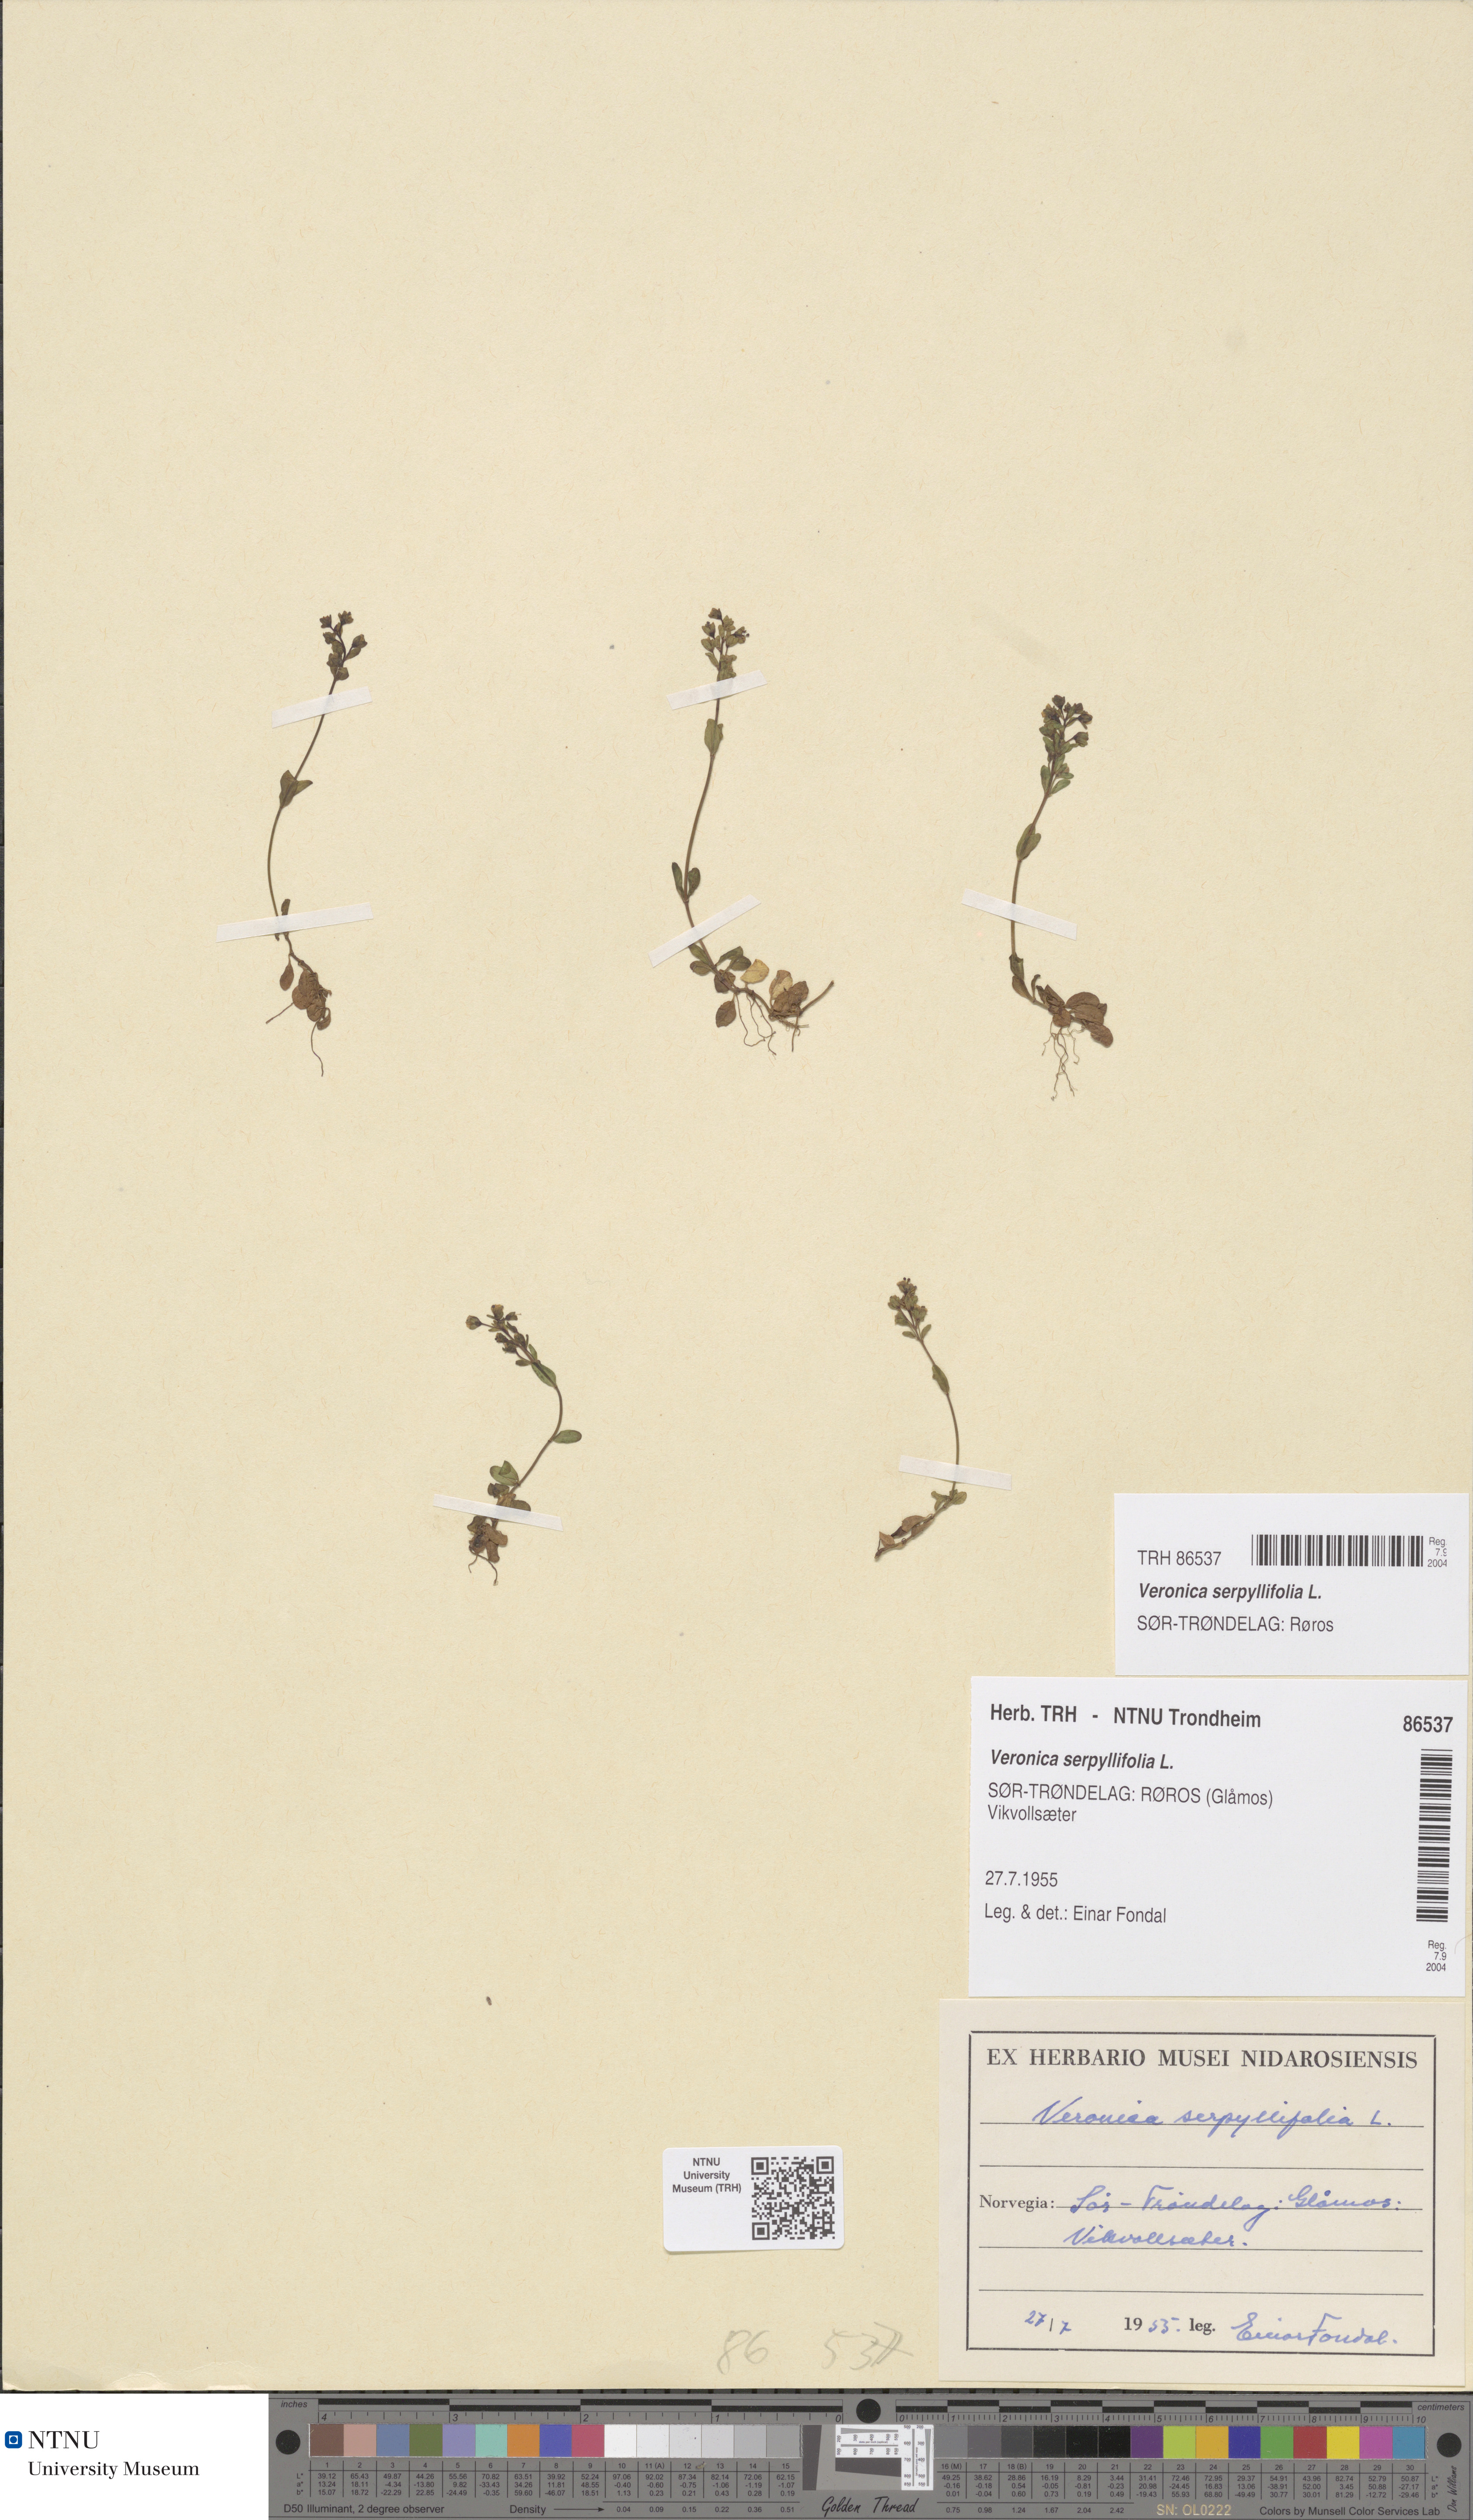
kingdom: Plantae
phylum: Tracheophyta
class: Magnoliopsida
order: Lamiales
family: Plantaginaceae
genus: Veronica
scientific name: Veronica serpyllifolia
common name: Thyme-leaved speedwell
